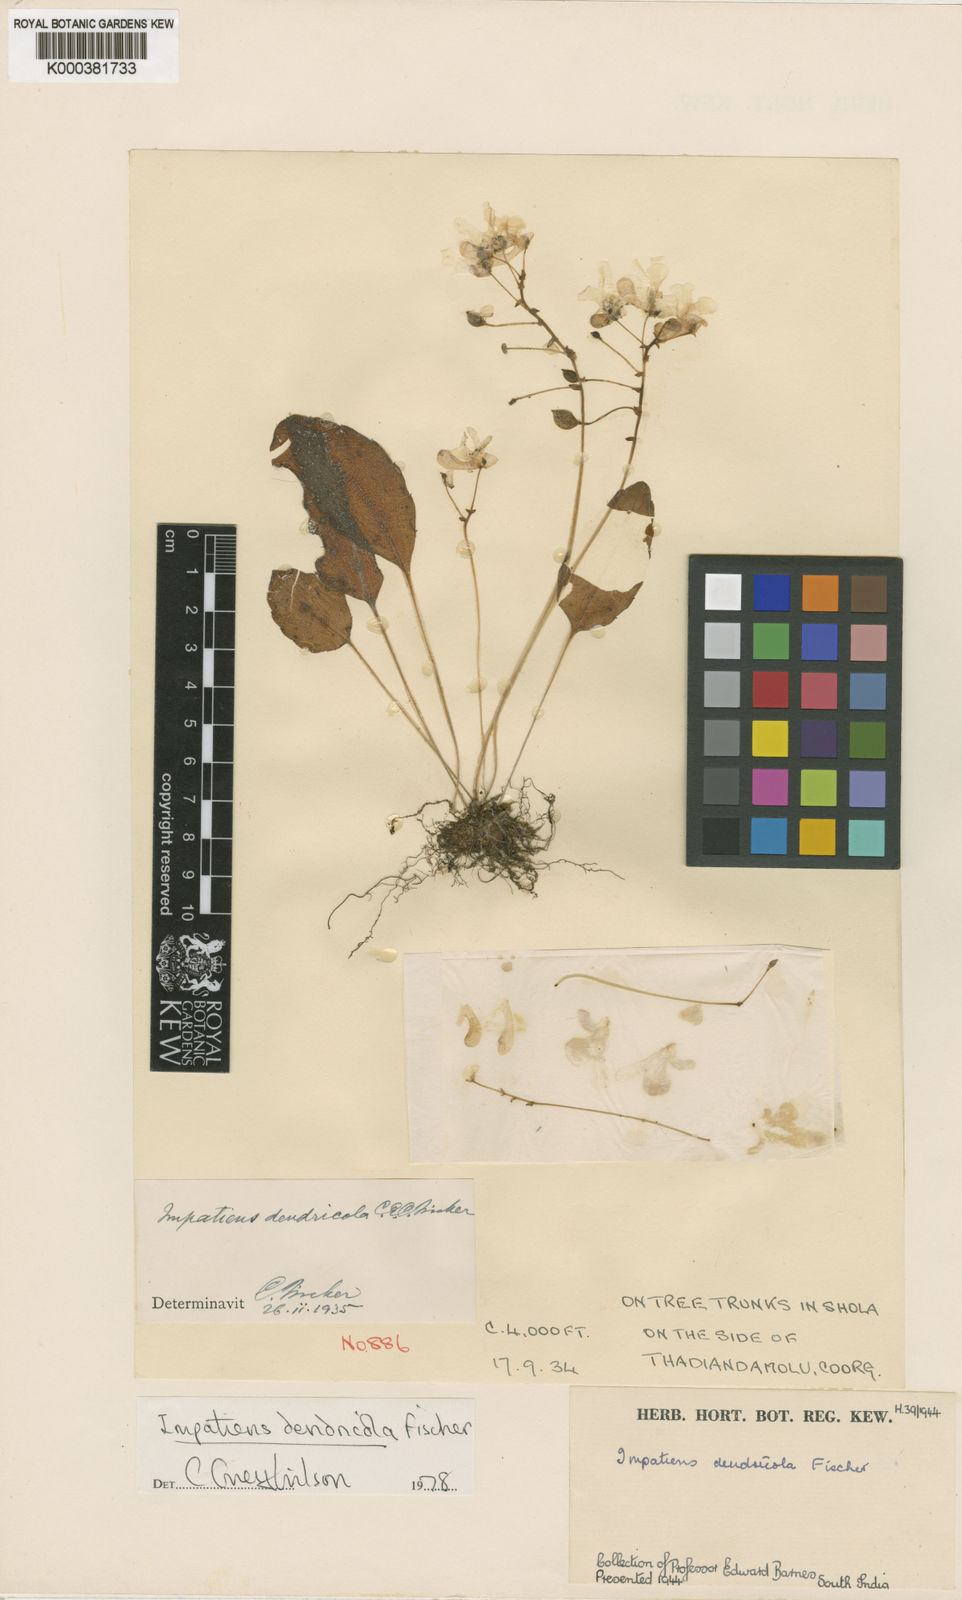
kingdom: Plantae
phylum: Tracheophyta
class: Magnoliopsida
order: Ericales
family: Balsaminaceae
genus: Impatiens
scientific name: Impatiens dendricola
